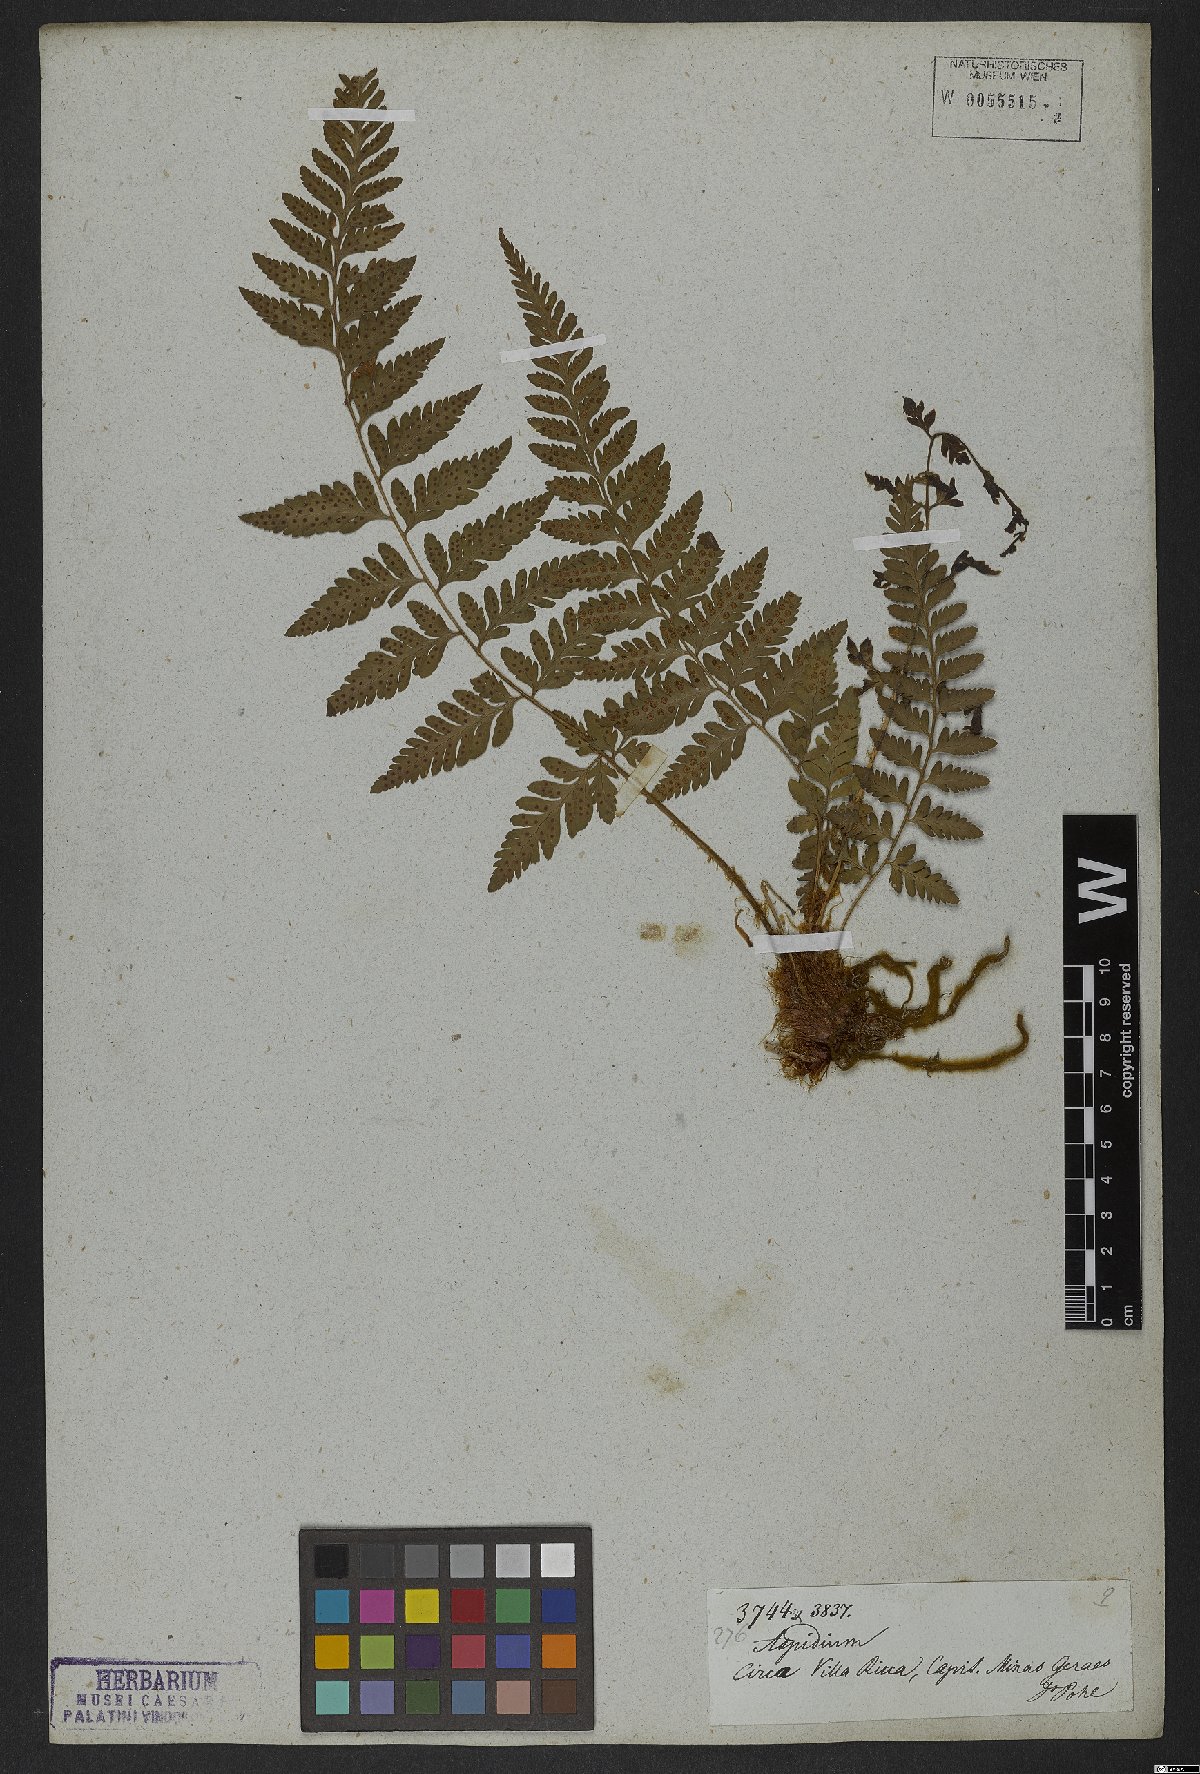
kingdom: Plantae
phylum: Tracheophyta
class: Polypodiopsida
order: Polypodiales
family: Dryopteridaceae
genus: Dryopteris
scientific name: Dryopteris patula
